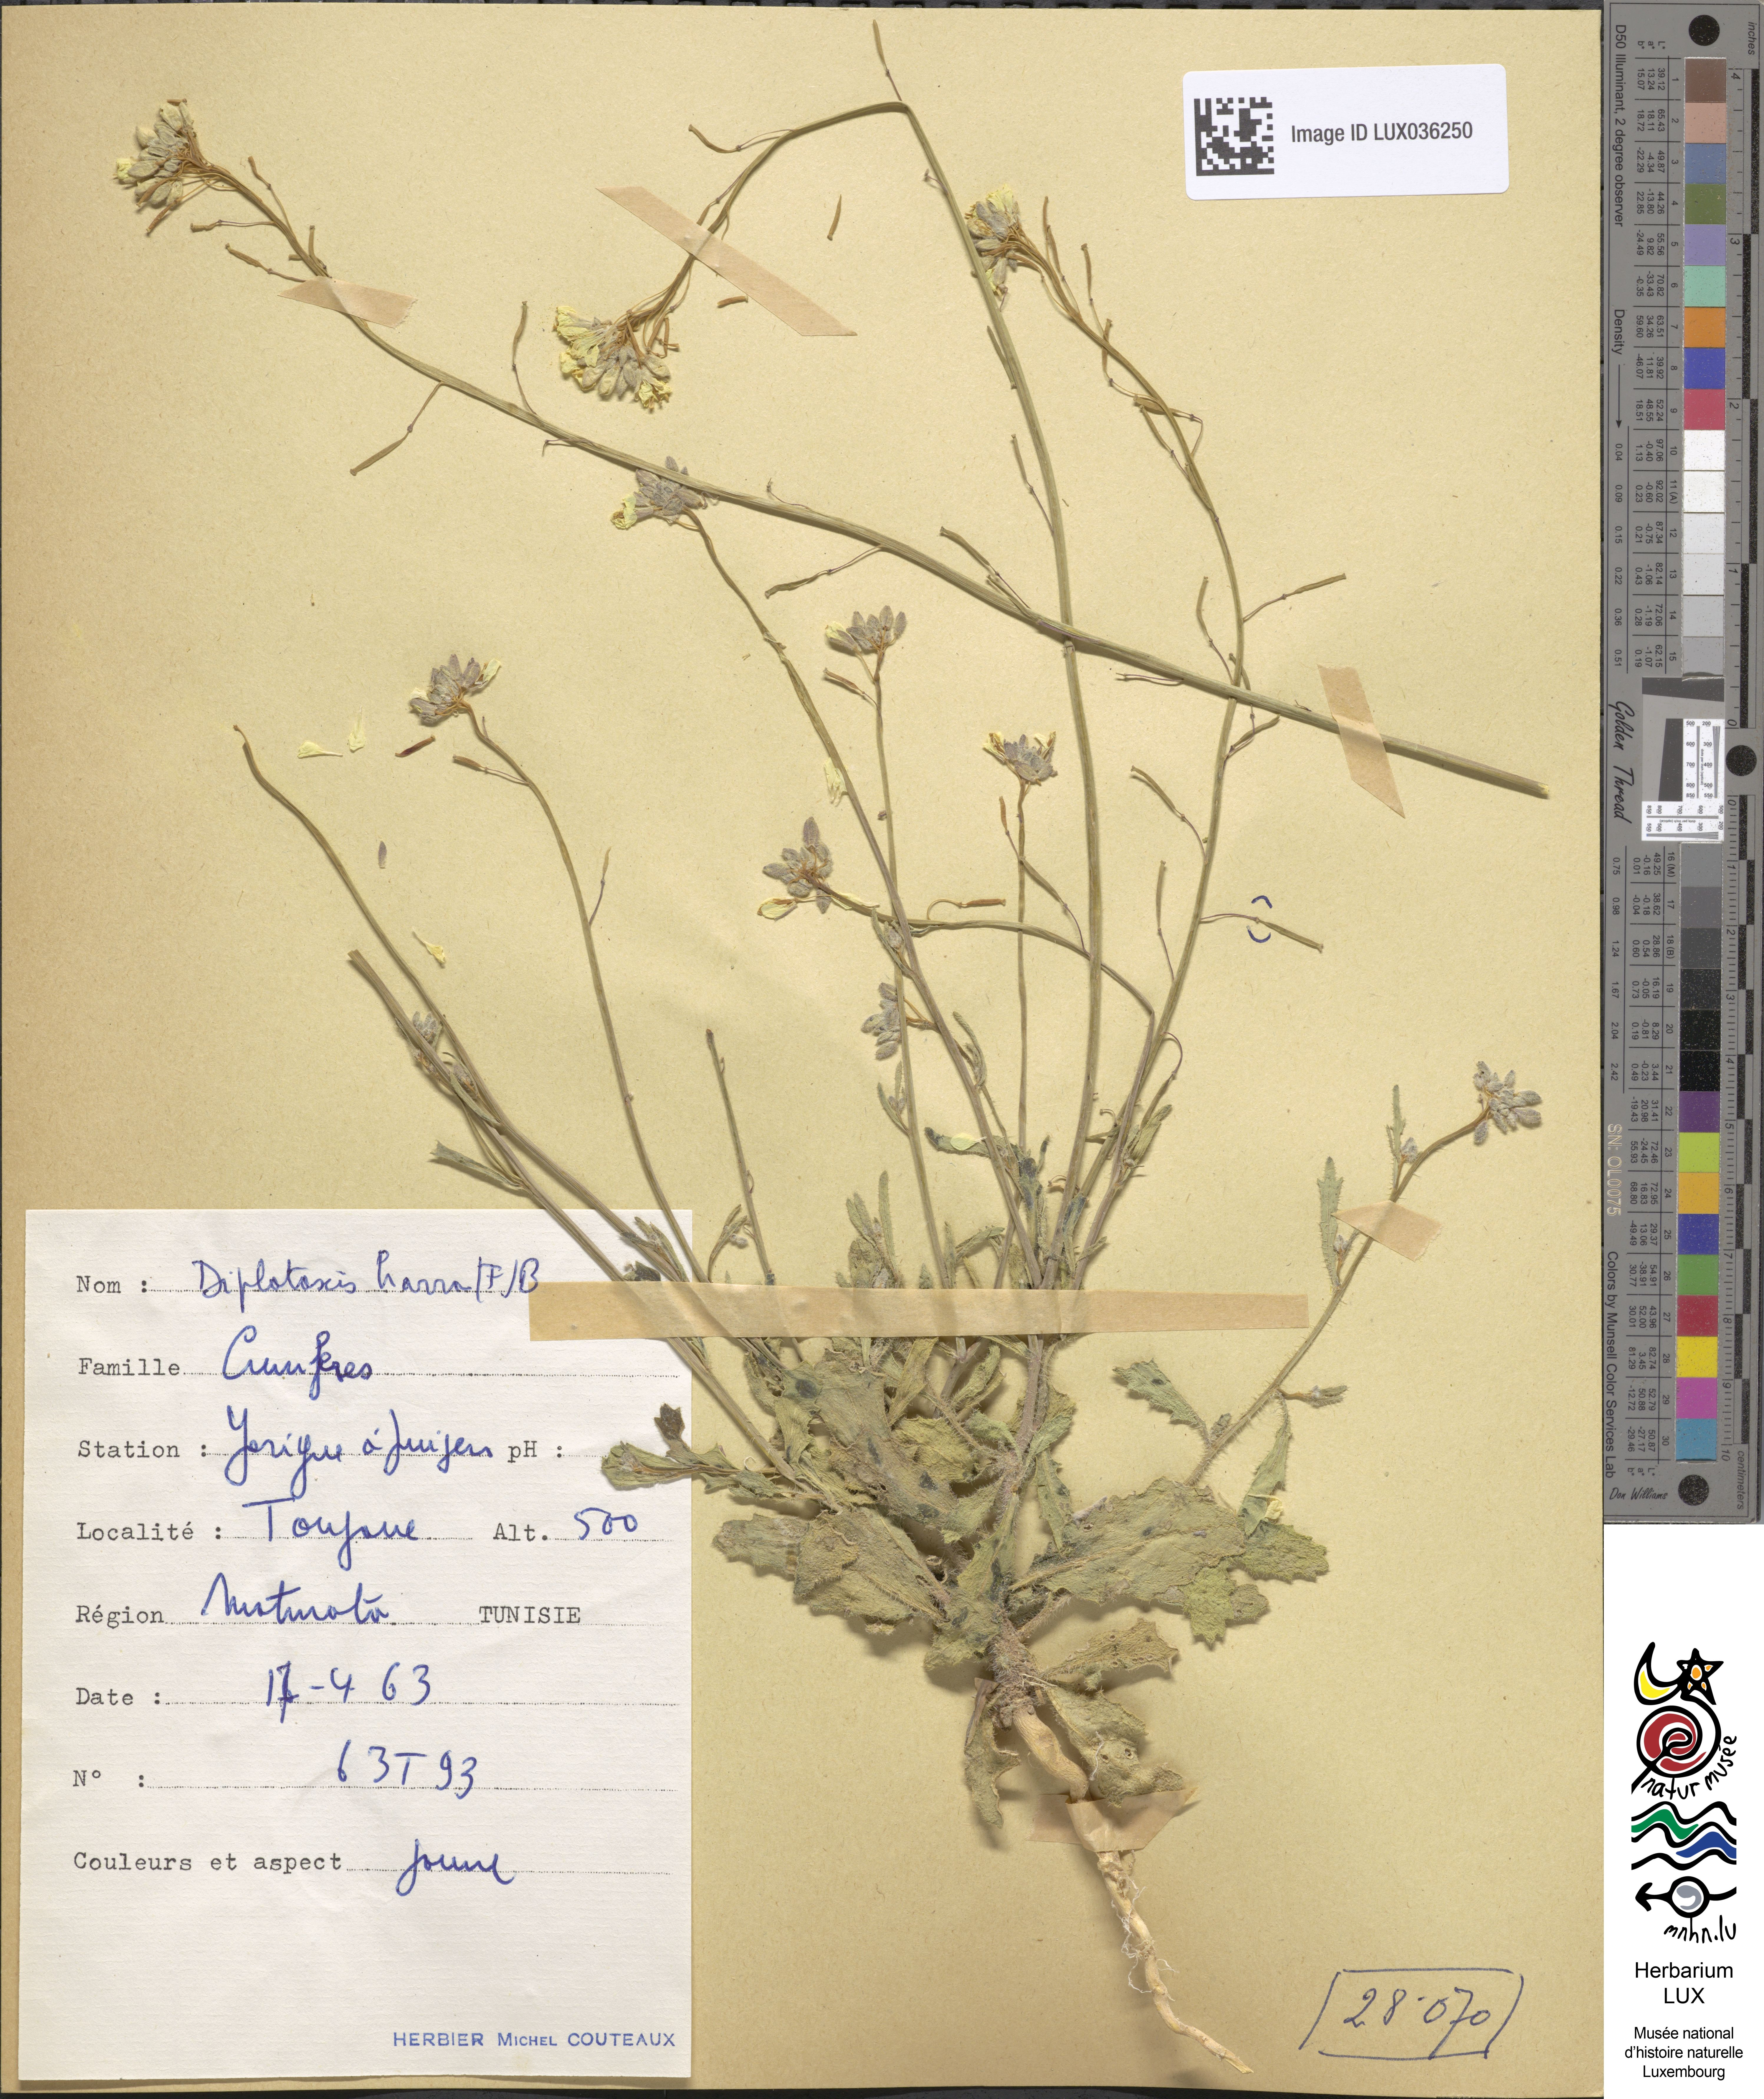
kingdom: Plantae
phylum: Tracheophyta
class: Magnoliopsida
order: Brassicales
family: Brassicaceae
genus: Diplotaxis
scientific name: Diplotaxis harra
